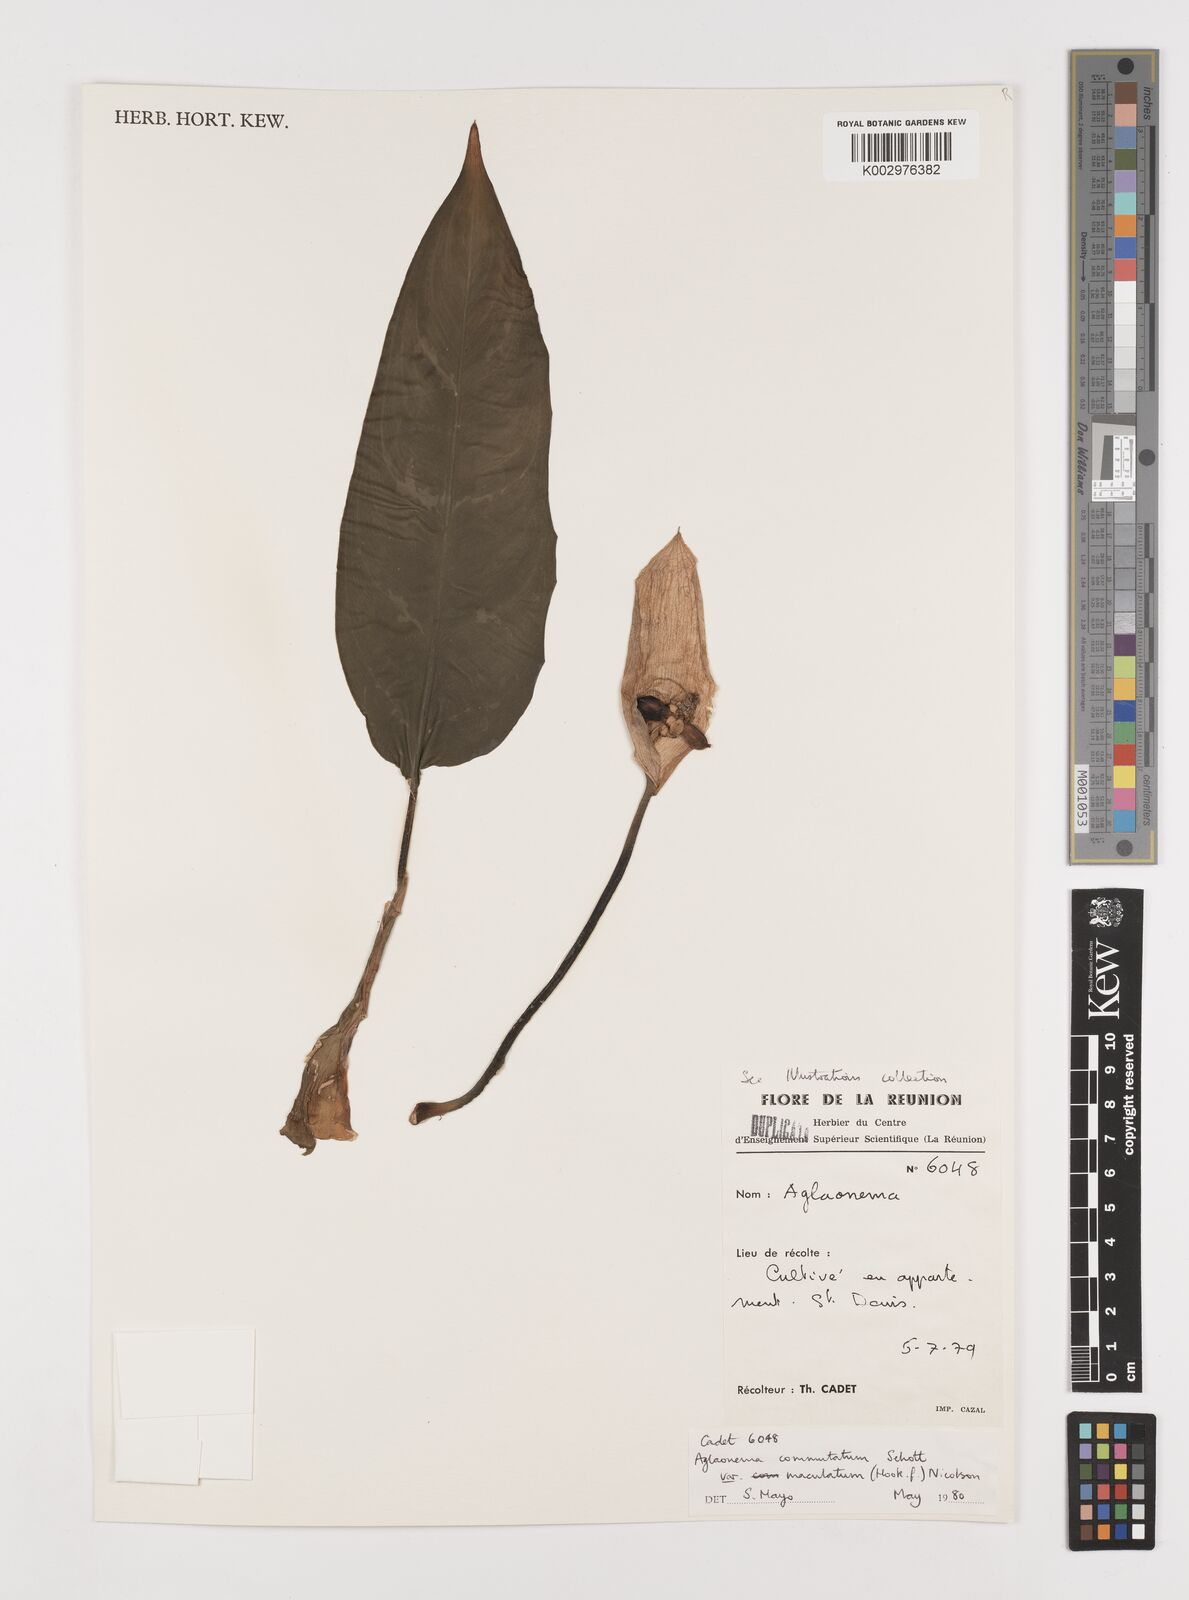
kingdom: Plantae
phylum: Tracheophyta
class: Liliopsida
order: Alismatales
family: Araceae
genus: Aglaonema
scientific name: Aglaonema commutatum
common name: Philippine evergreen
